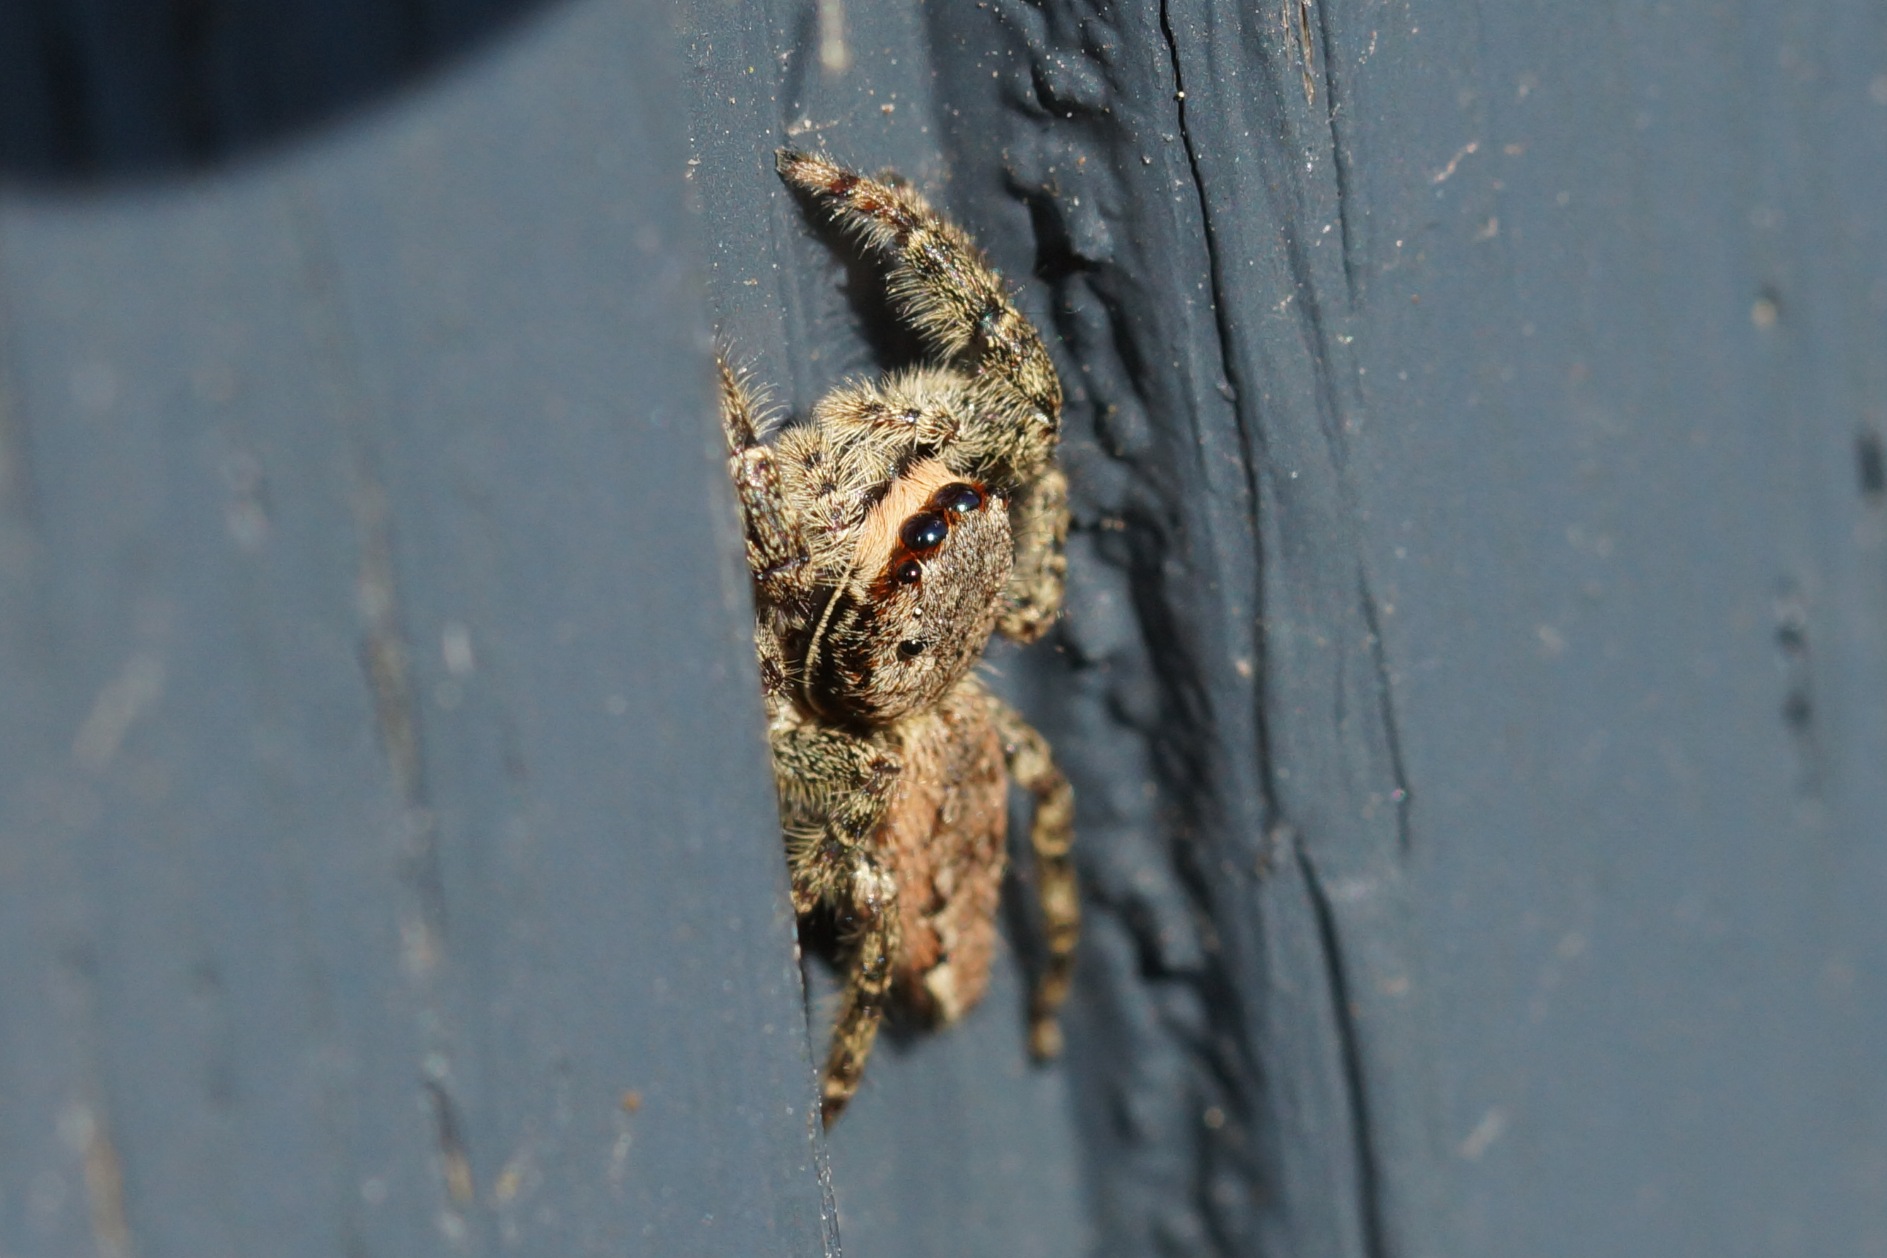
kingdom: Animalia
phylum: Arthropoda
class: Arachnida
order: Araneae
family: Salticidae
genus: Marpissa
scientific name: Marpissa muscosa
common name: Stor springedderkop
